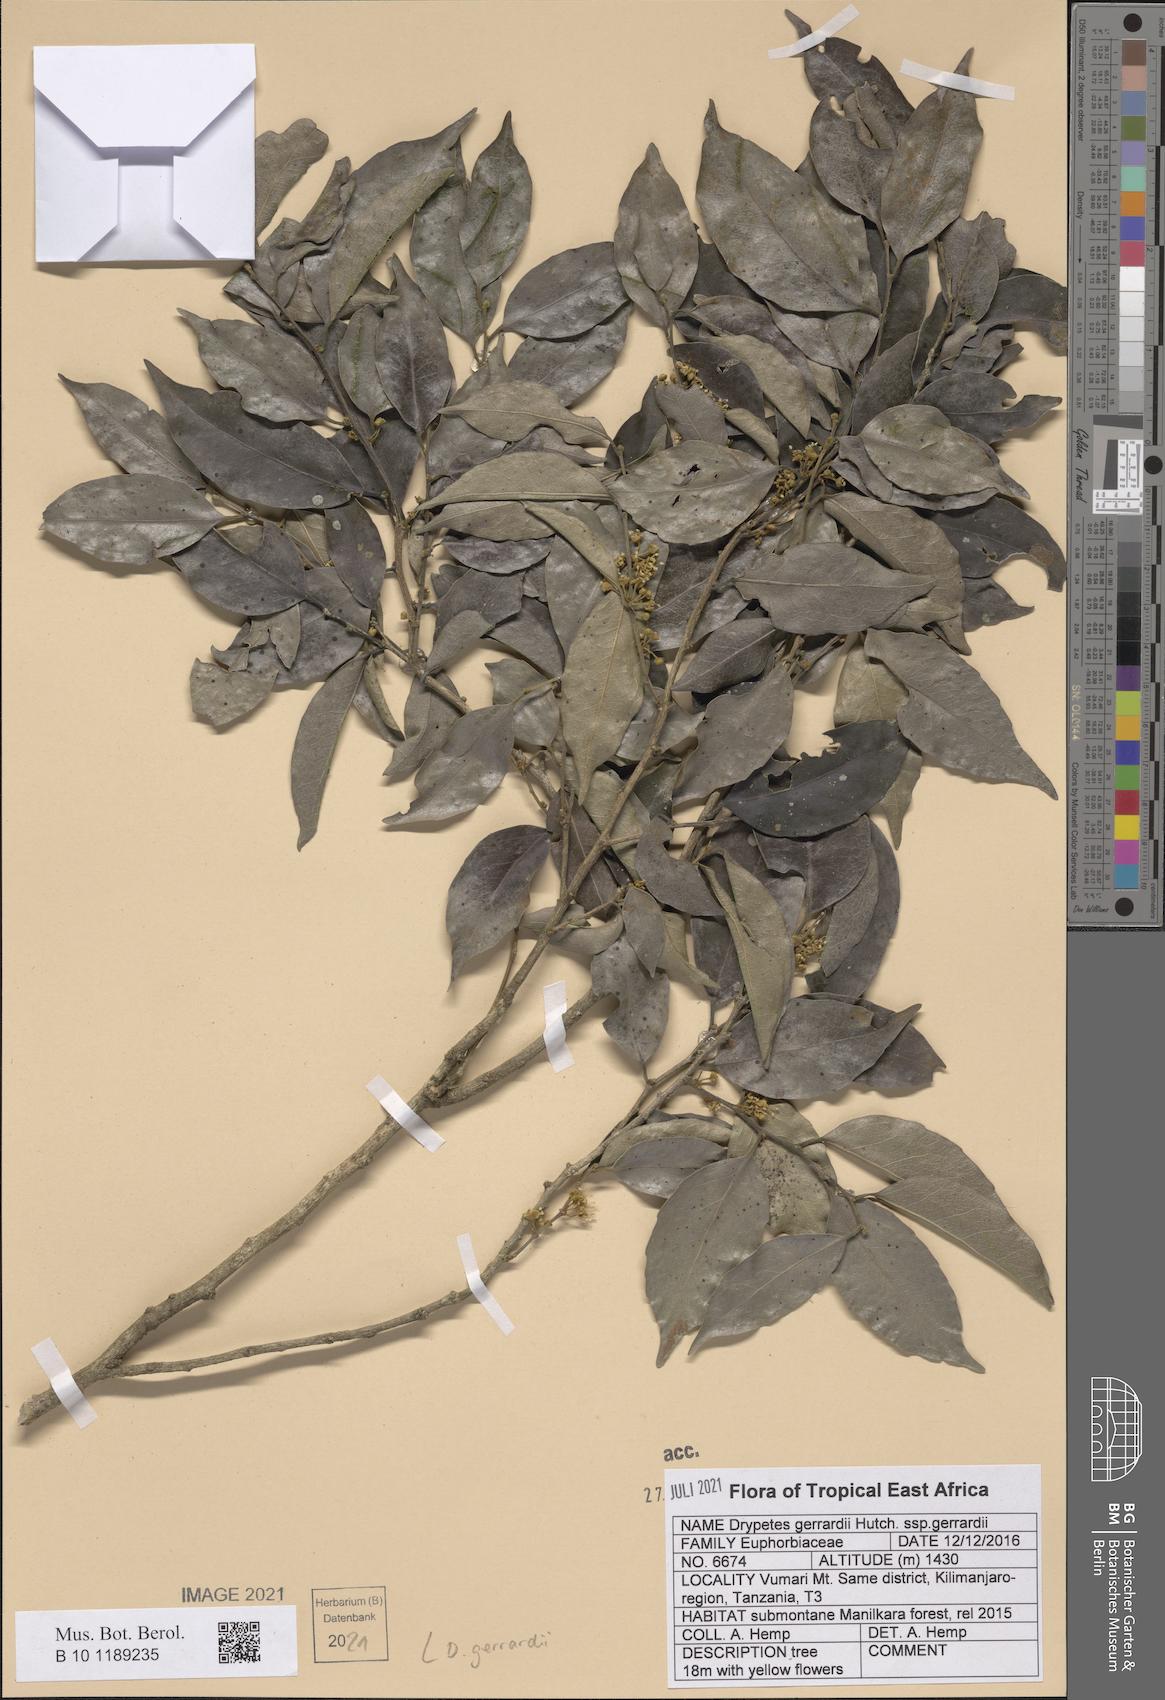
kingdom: Plantae
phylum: Tracheophyta
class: Magnoliopsida
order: Malpighiales
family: Putranjivaceae
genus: Drypetes
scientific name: Drypetes gerrardii
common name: Forest ironplum
